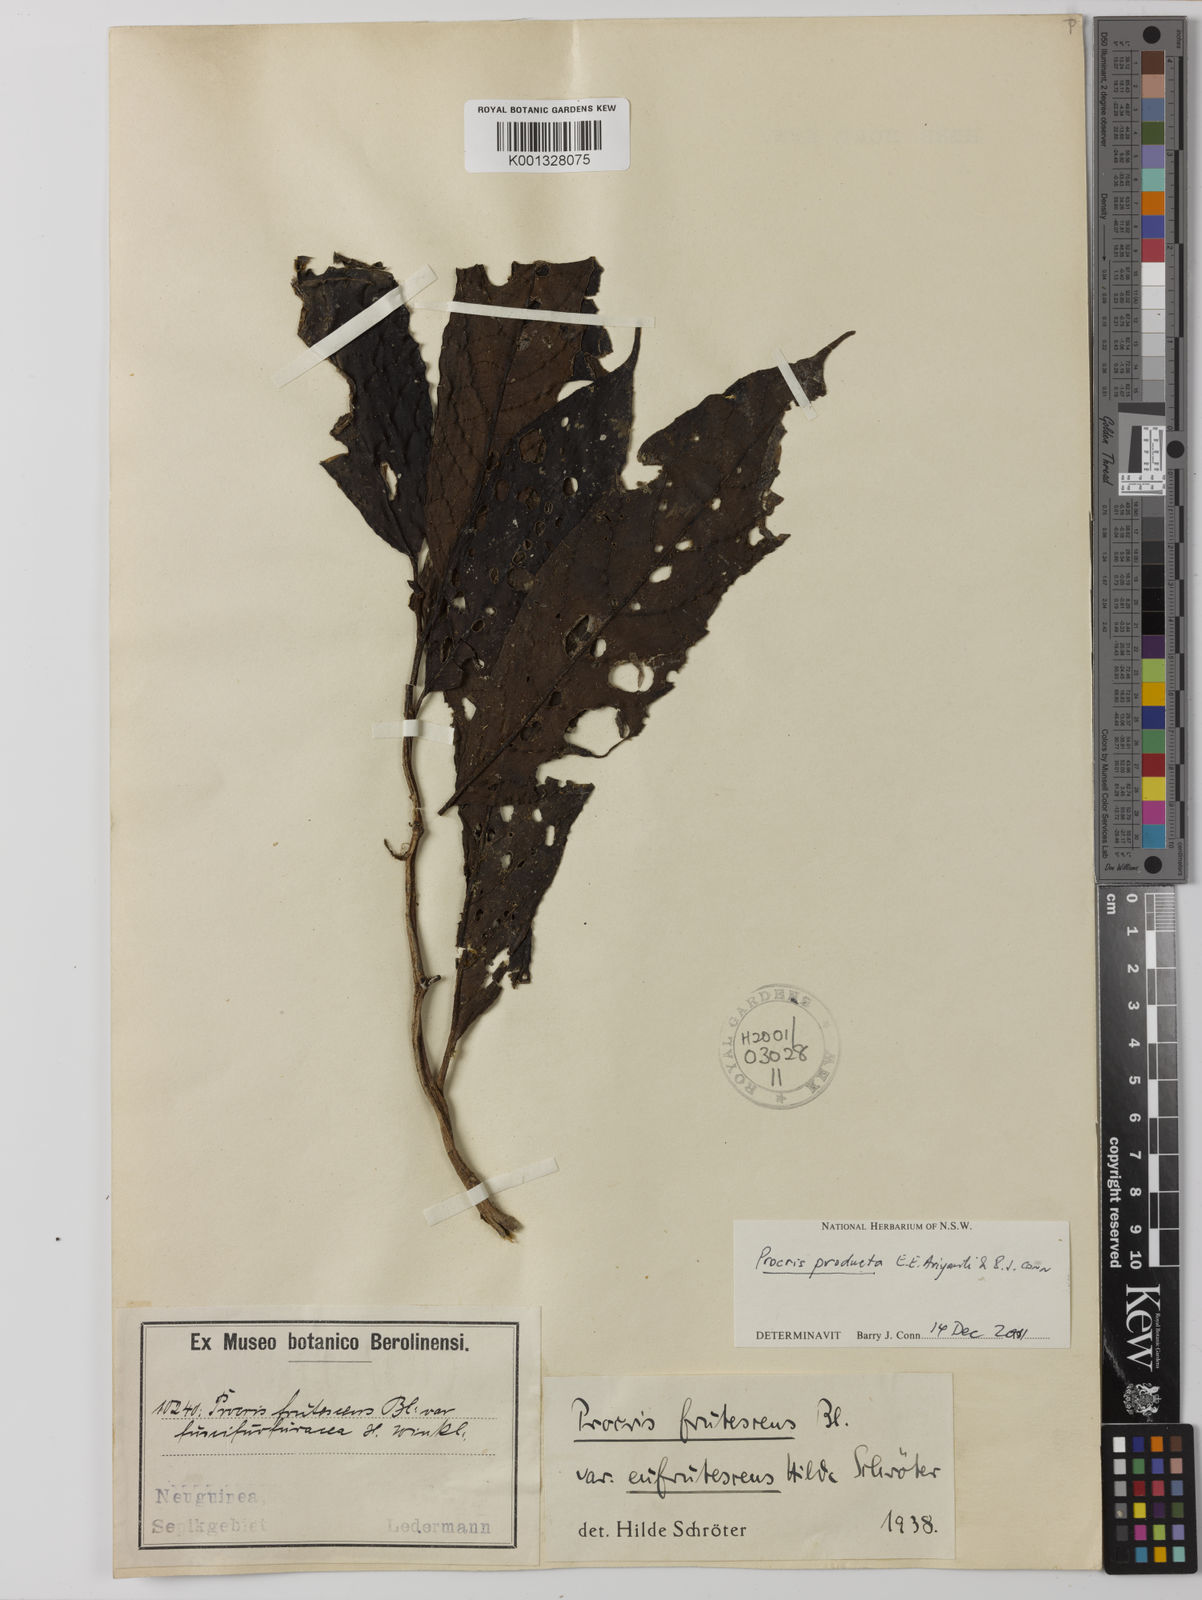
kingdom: Plantae
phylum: Tracheophyta
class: Magnoliopsida
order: Rosales
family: Urticaceae
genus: Procris
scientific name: Procris frutescens
